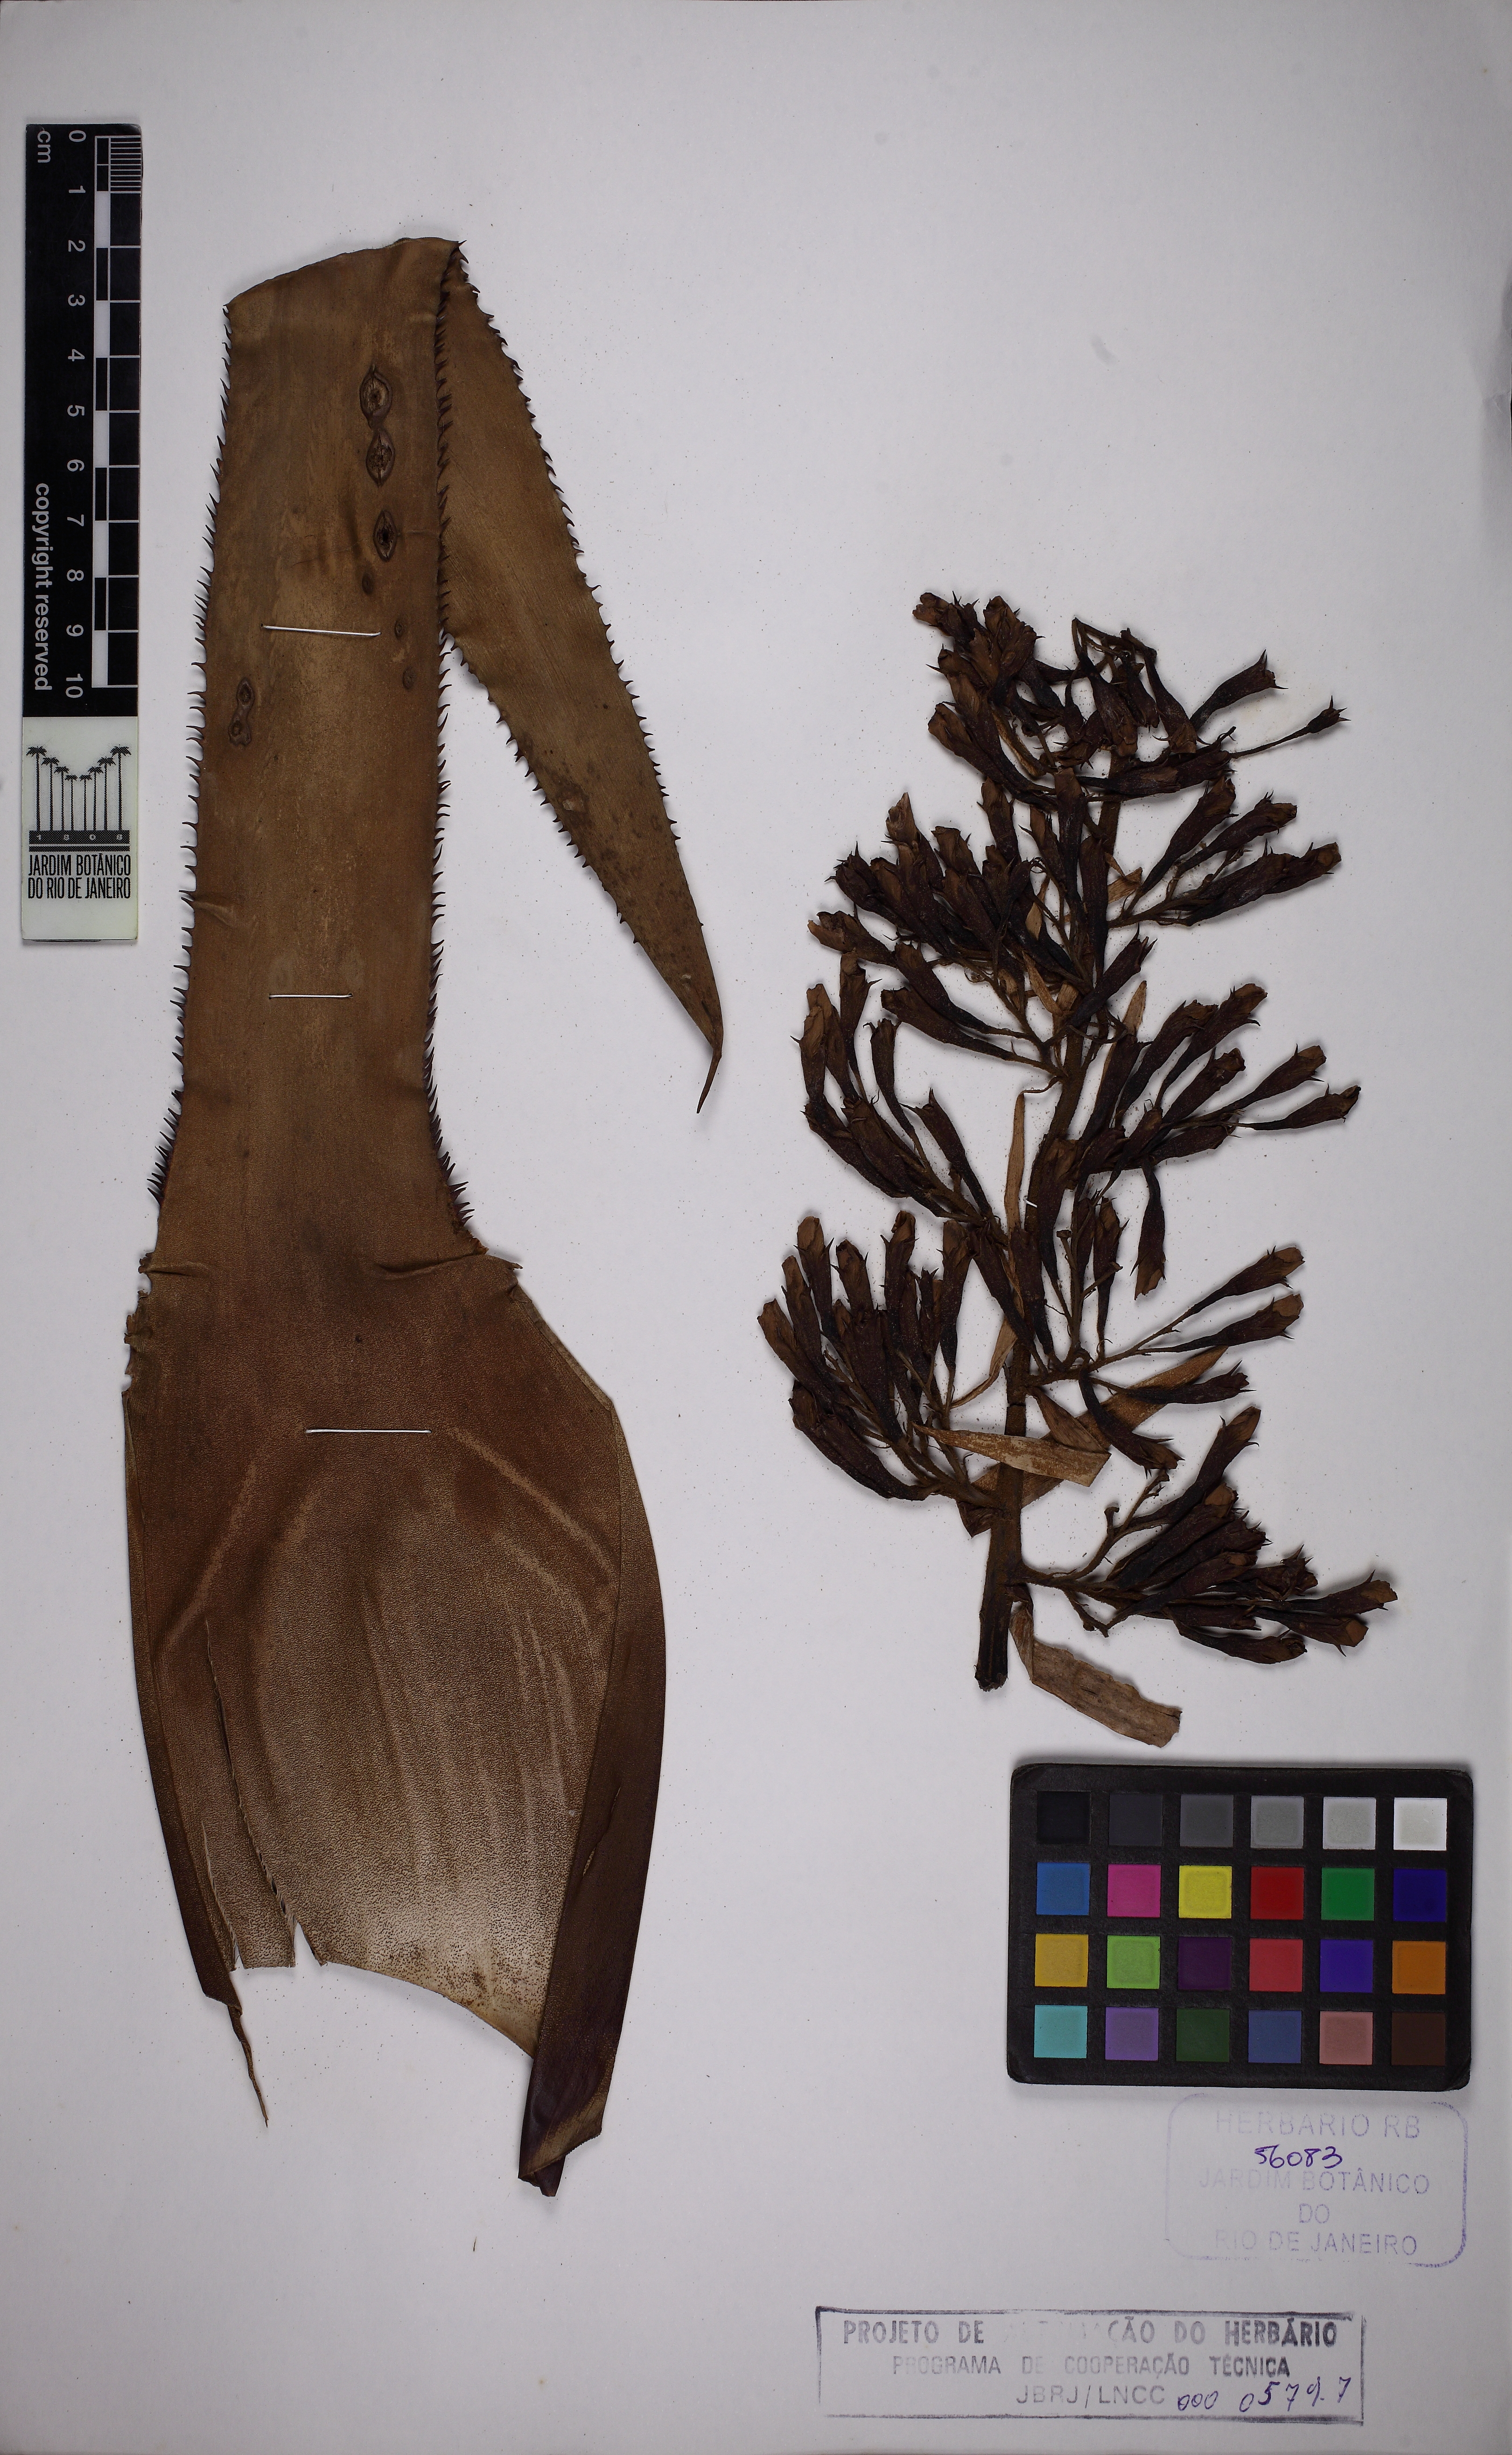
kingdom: Plantae
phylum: Tracheophyta
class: Liliopsida
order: Poales
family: Bromeliaceae
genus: Portea
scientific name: Portea petropolitana
